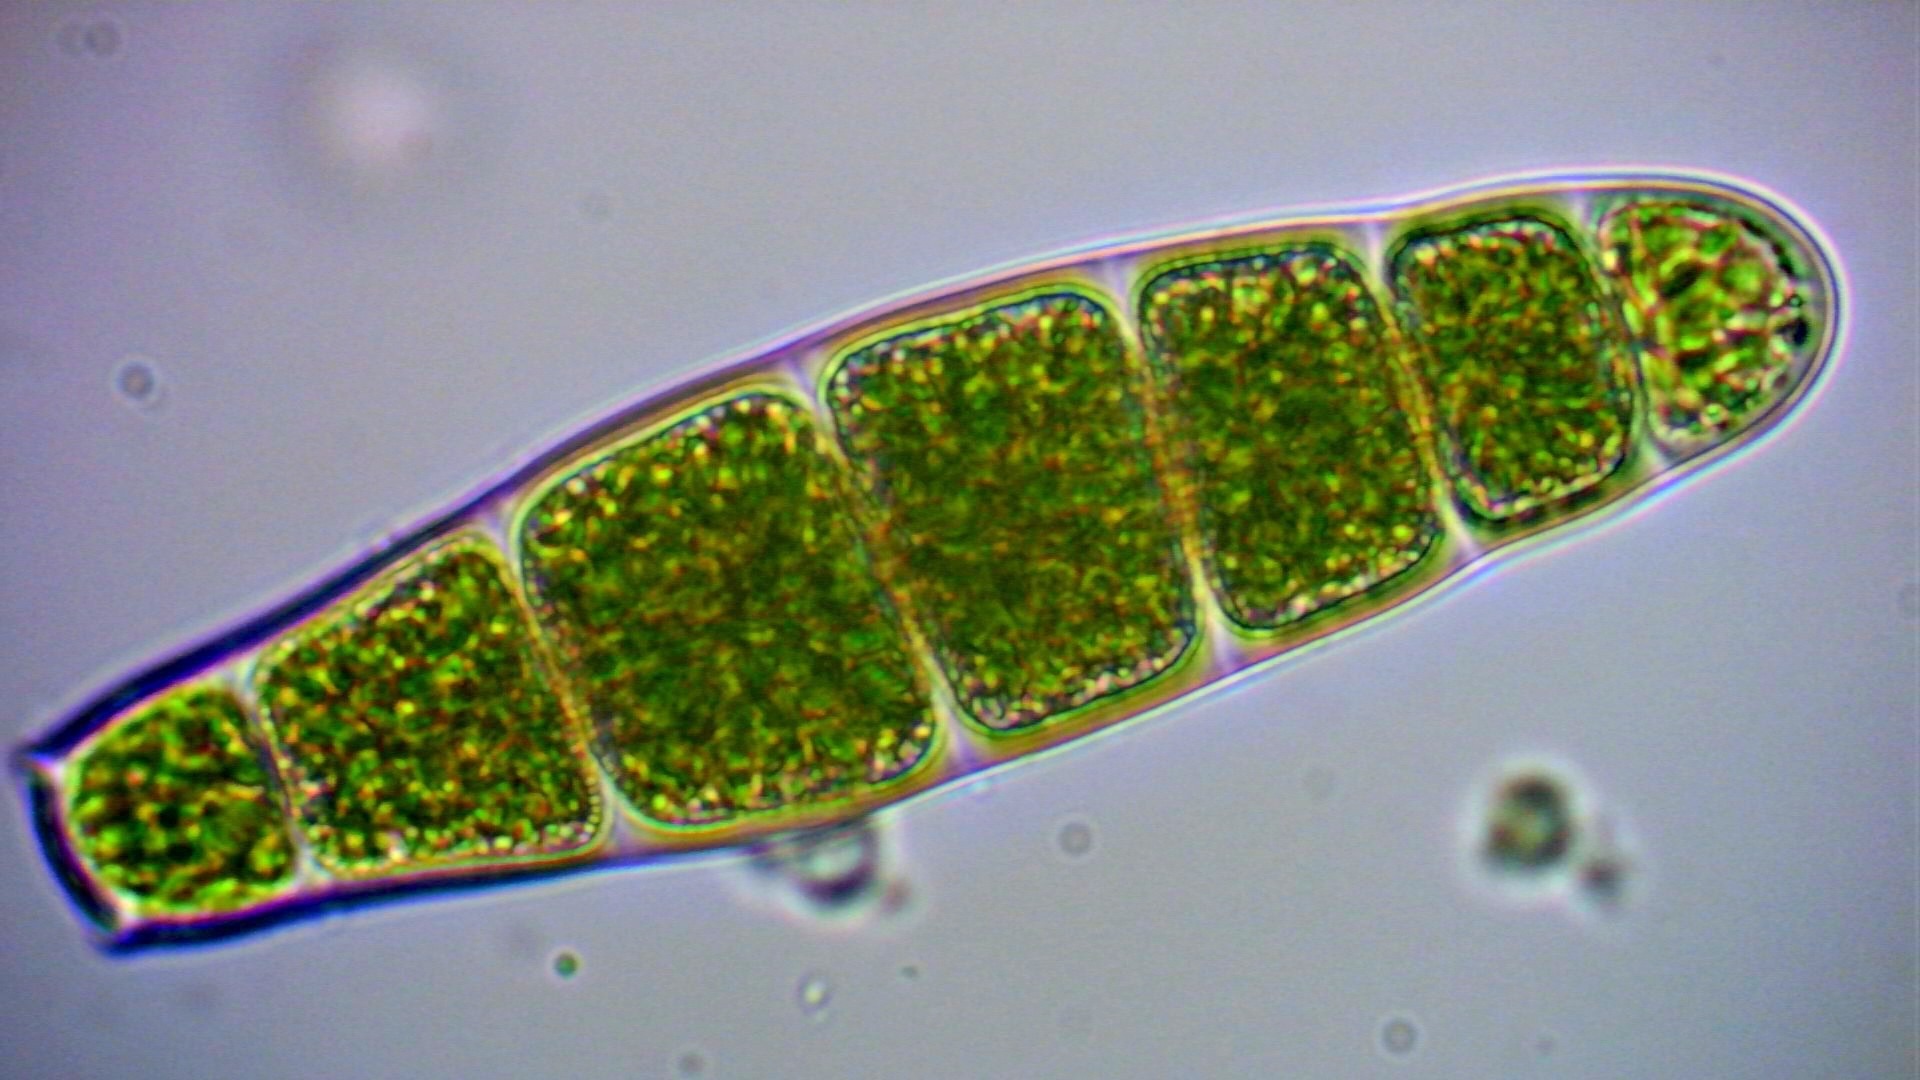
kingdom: Plantae
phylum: Bryophyta
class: Bryopsida
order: Orthotrichales
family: Orthotrichaceae
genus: Zygodon
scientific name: Zygodon conoideus
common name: Tand-køllemos
